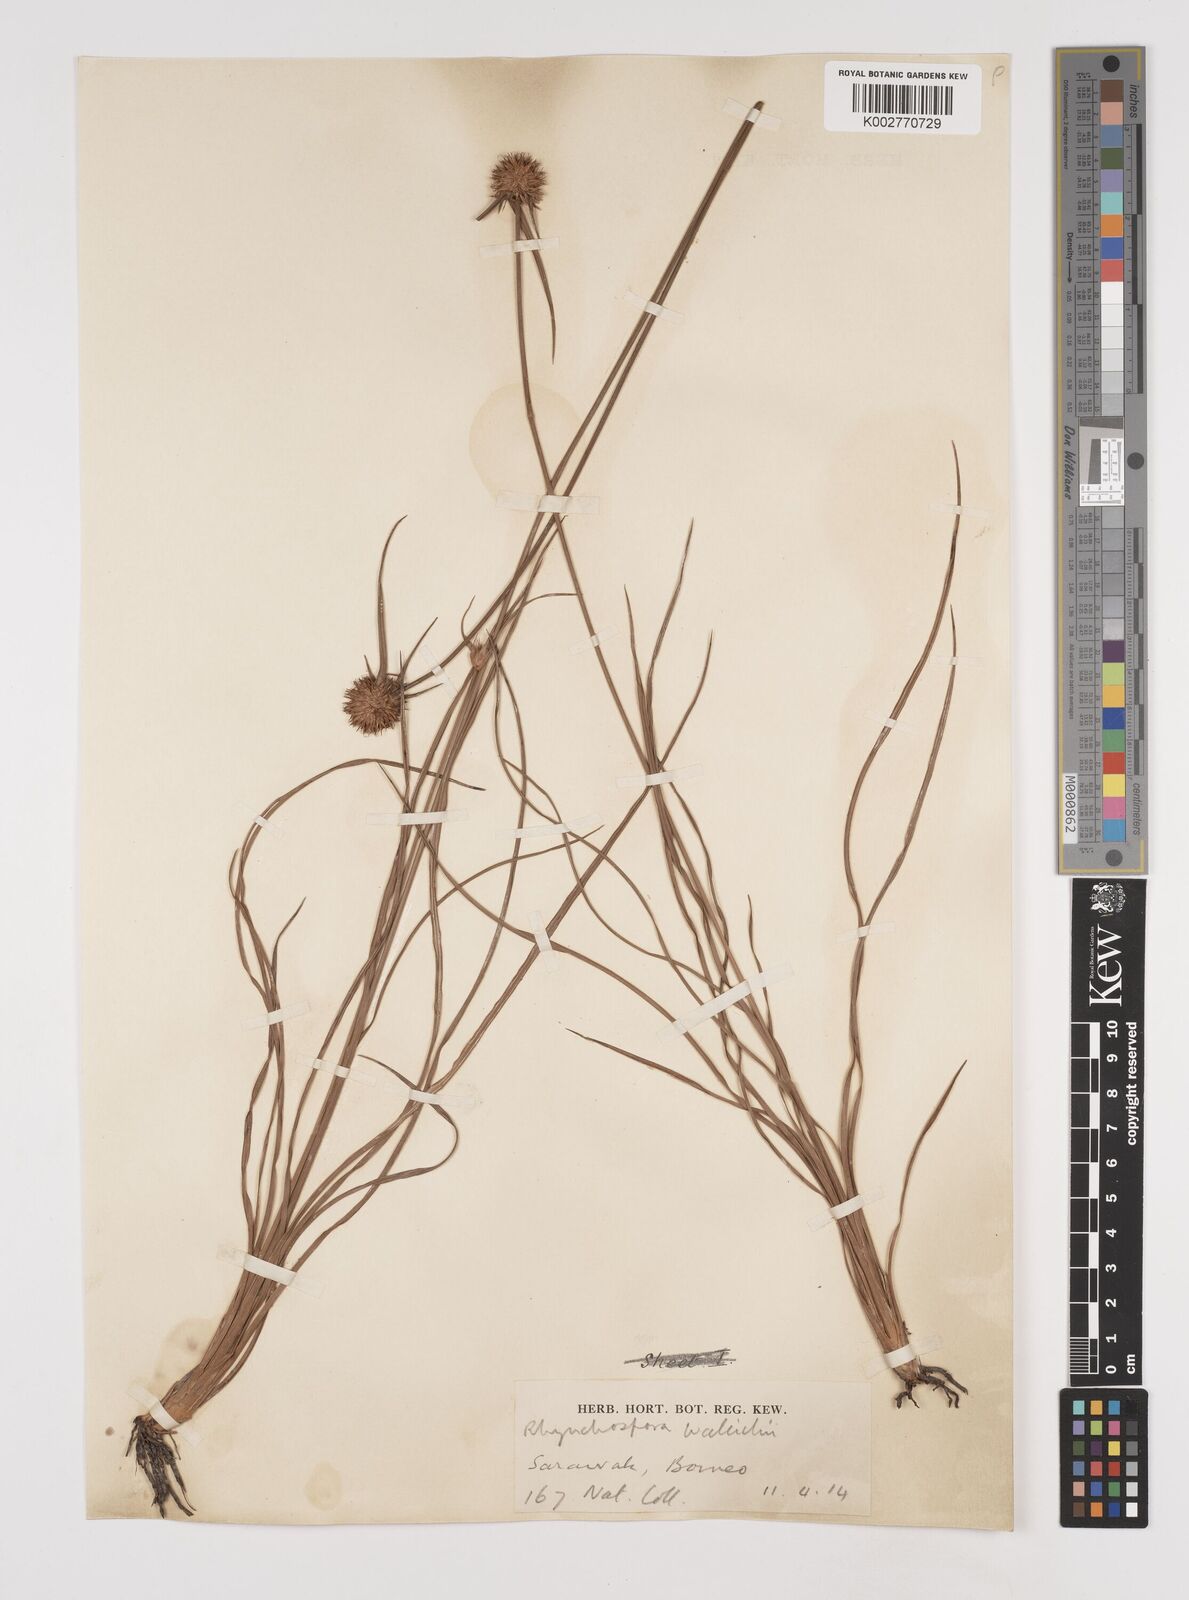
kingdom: Plantae
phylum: Tracheophyta
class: Liliopsida
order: Poales
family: Cyperaceae
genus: Rhynchospora
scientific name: Rhynchospora rubra
